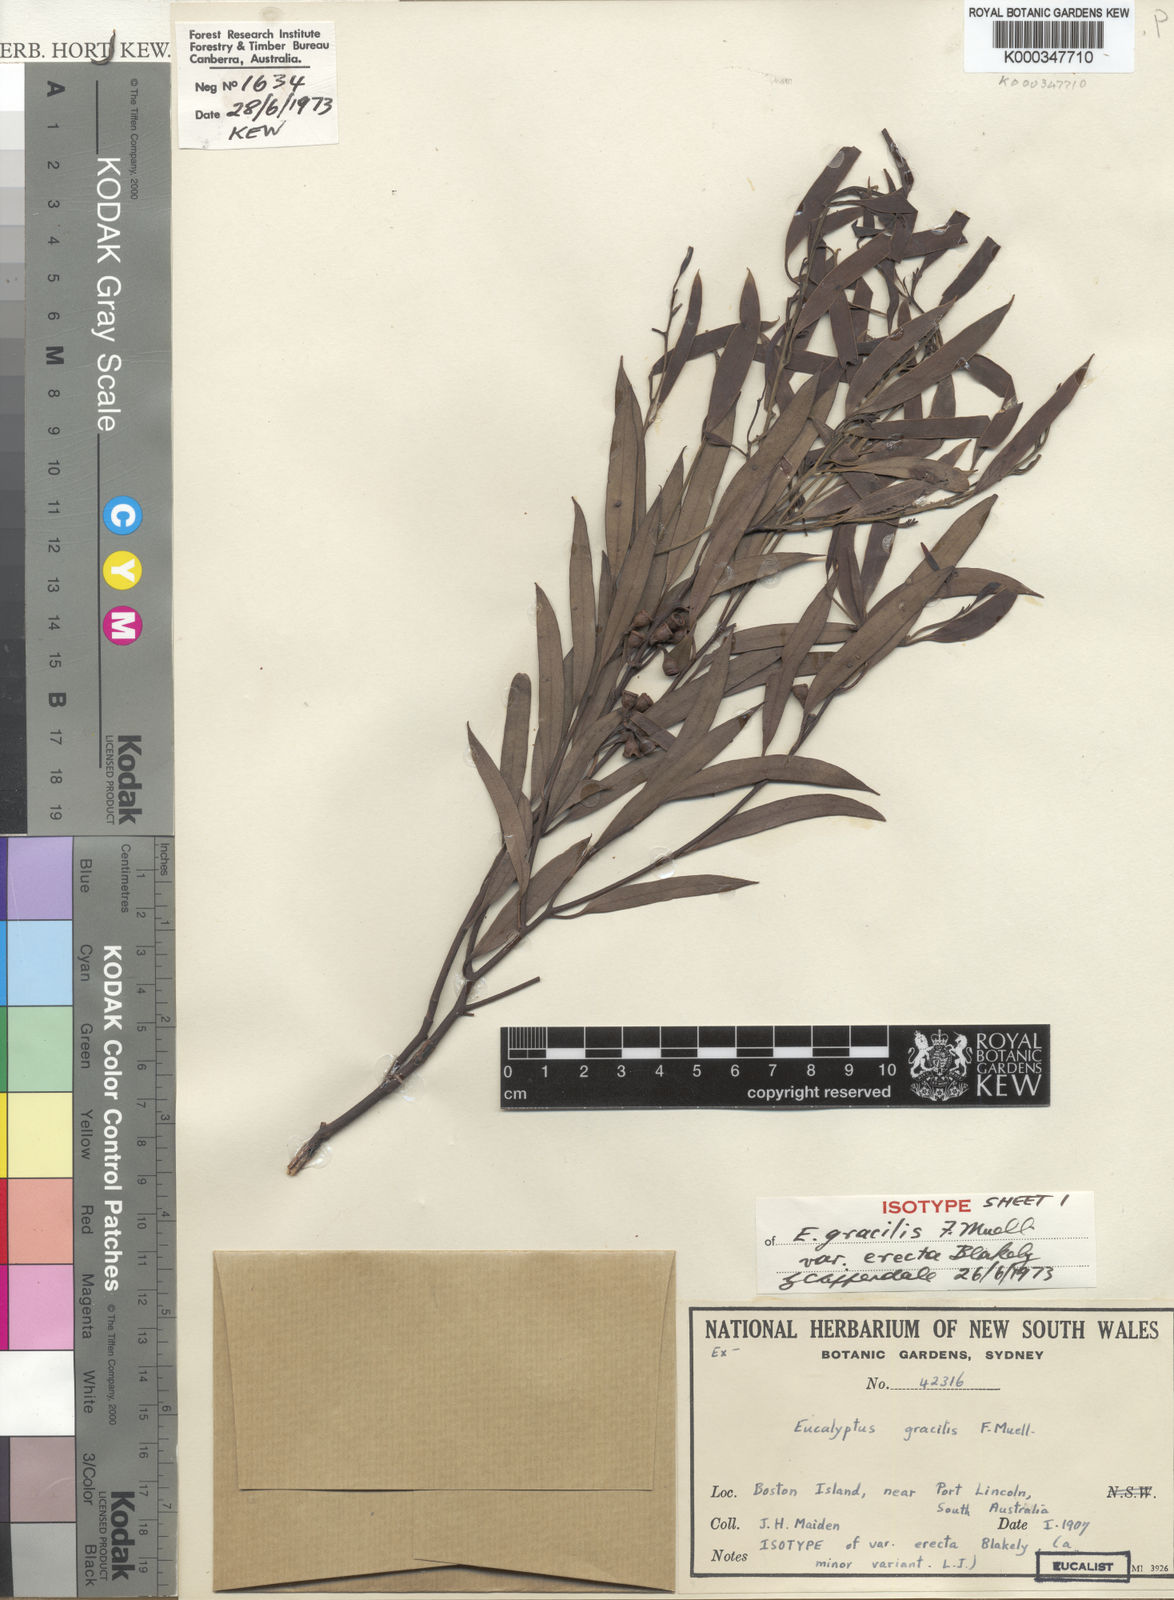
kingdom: Plantae
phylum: Tracheophyta
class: Magnoliopsida
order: Myrtales
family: Myrtaceae
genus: Eucalyptus
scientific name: Eucalyptus gracilis
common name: White mallee
